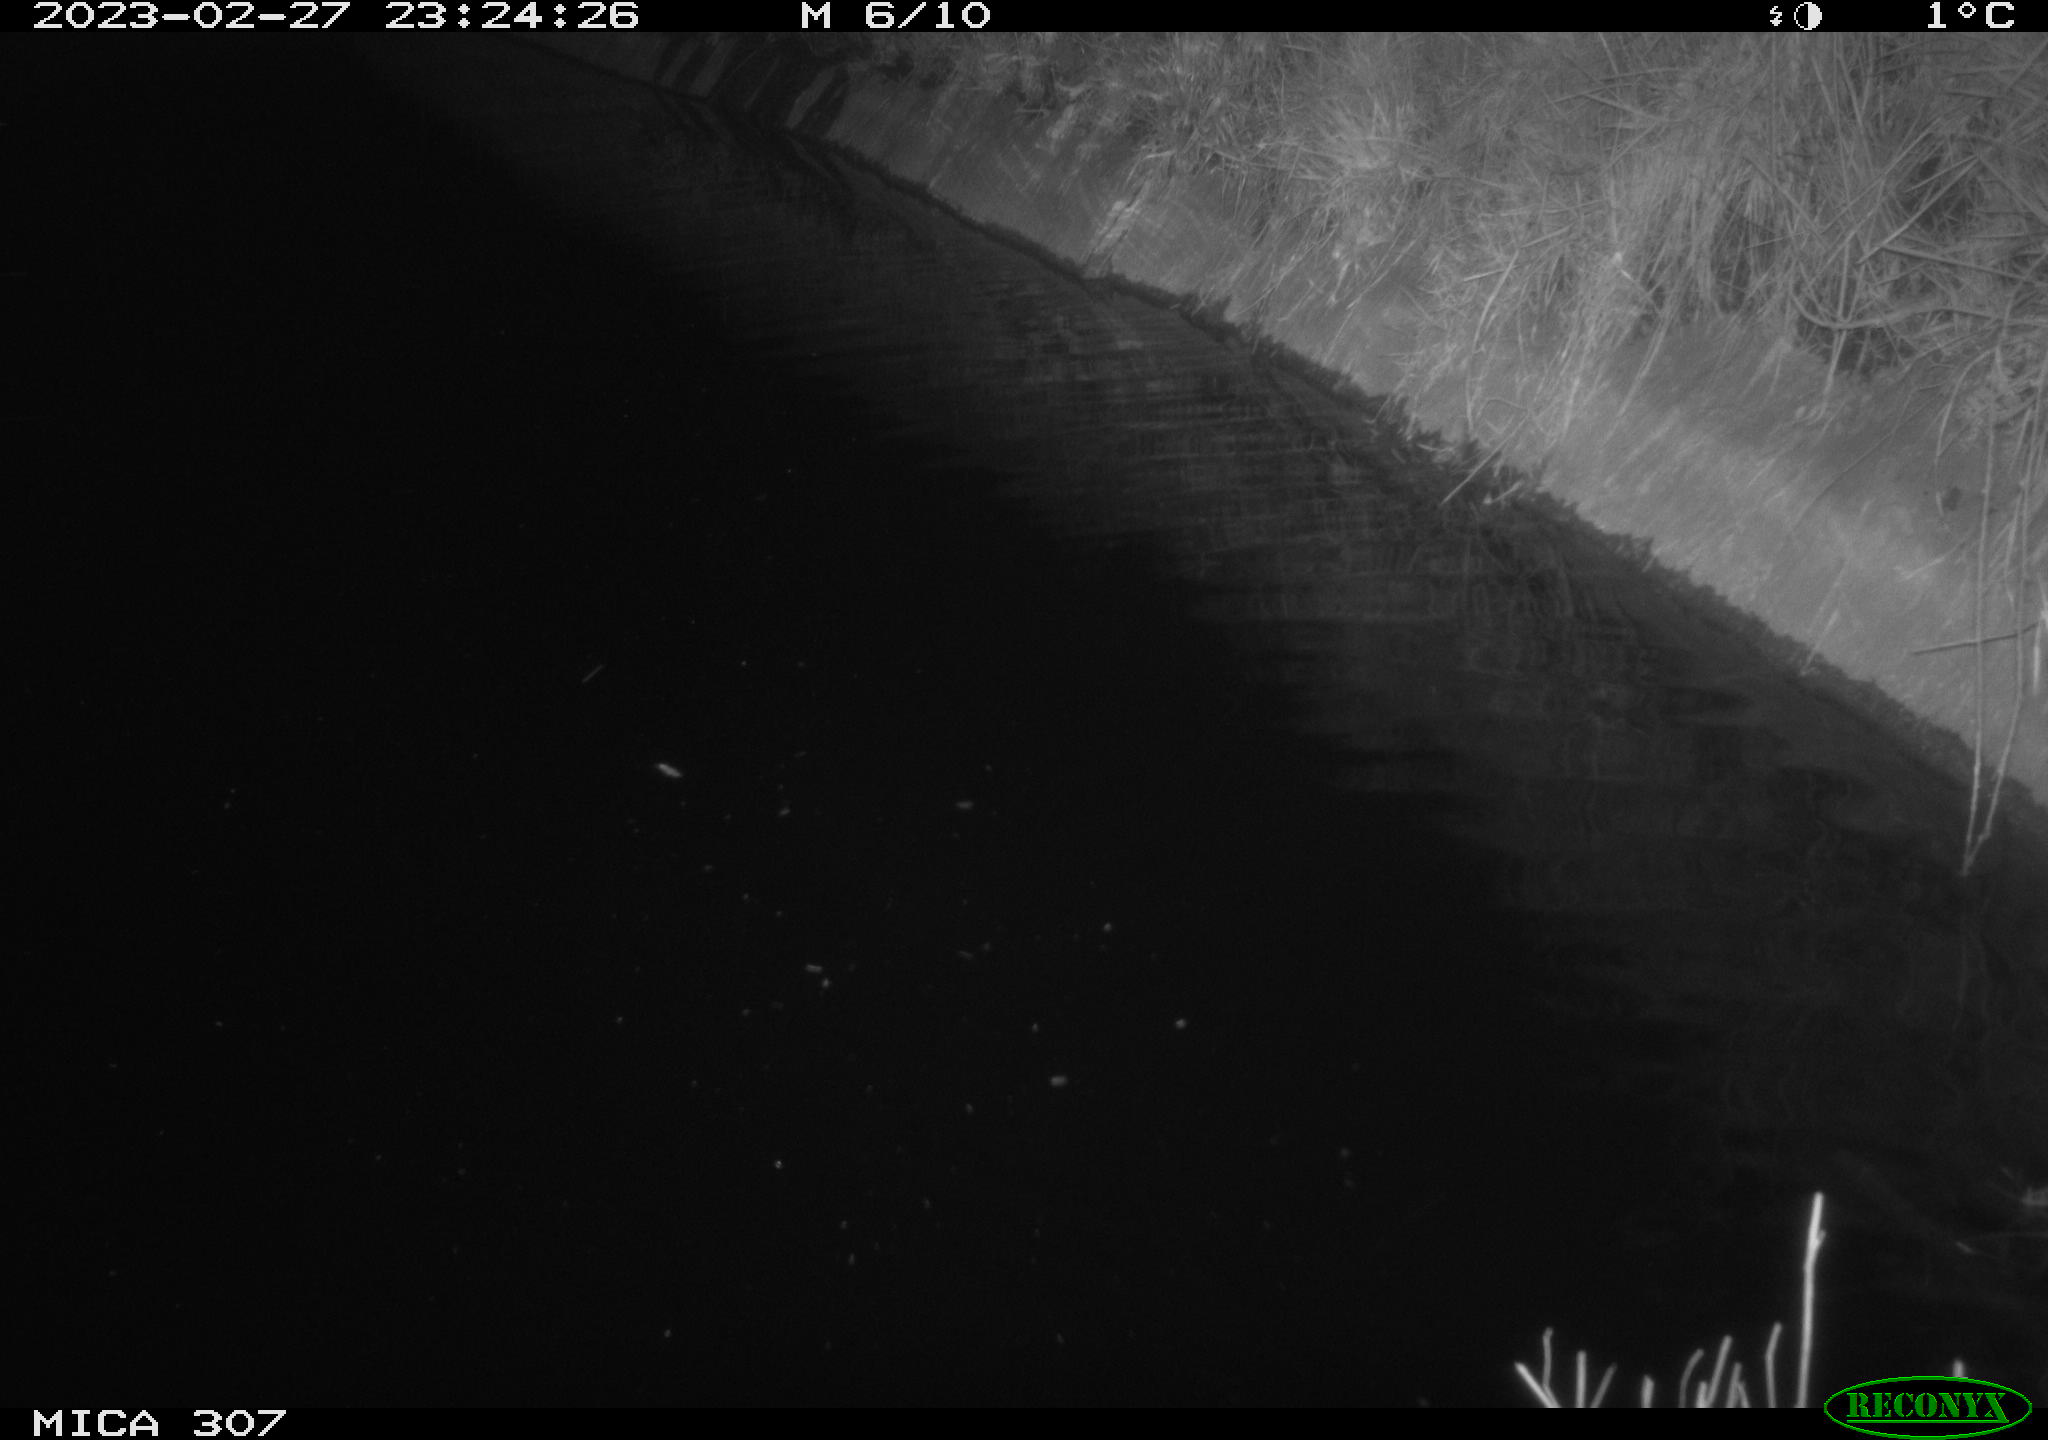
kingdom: Animalia
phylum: Chordata
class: Mammalia
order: Rodentia
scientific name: Rodentia
